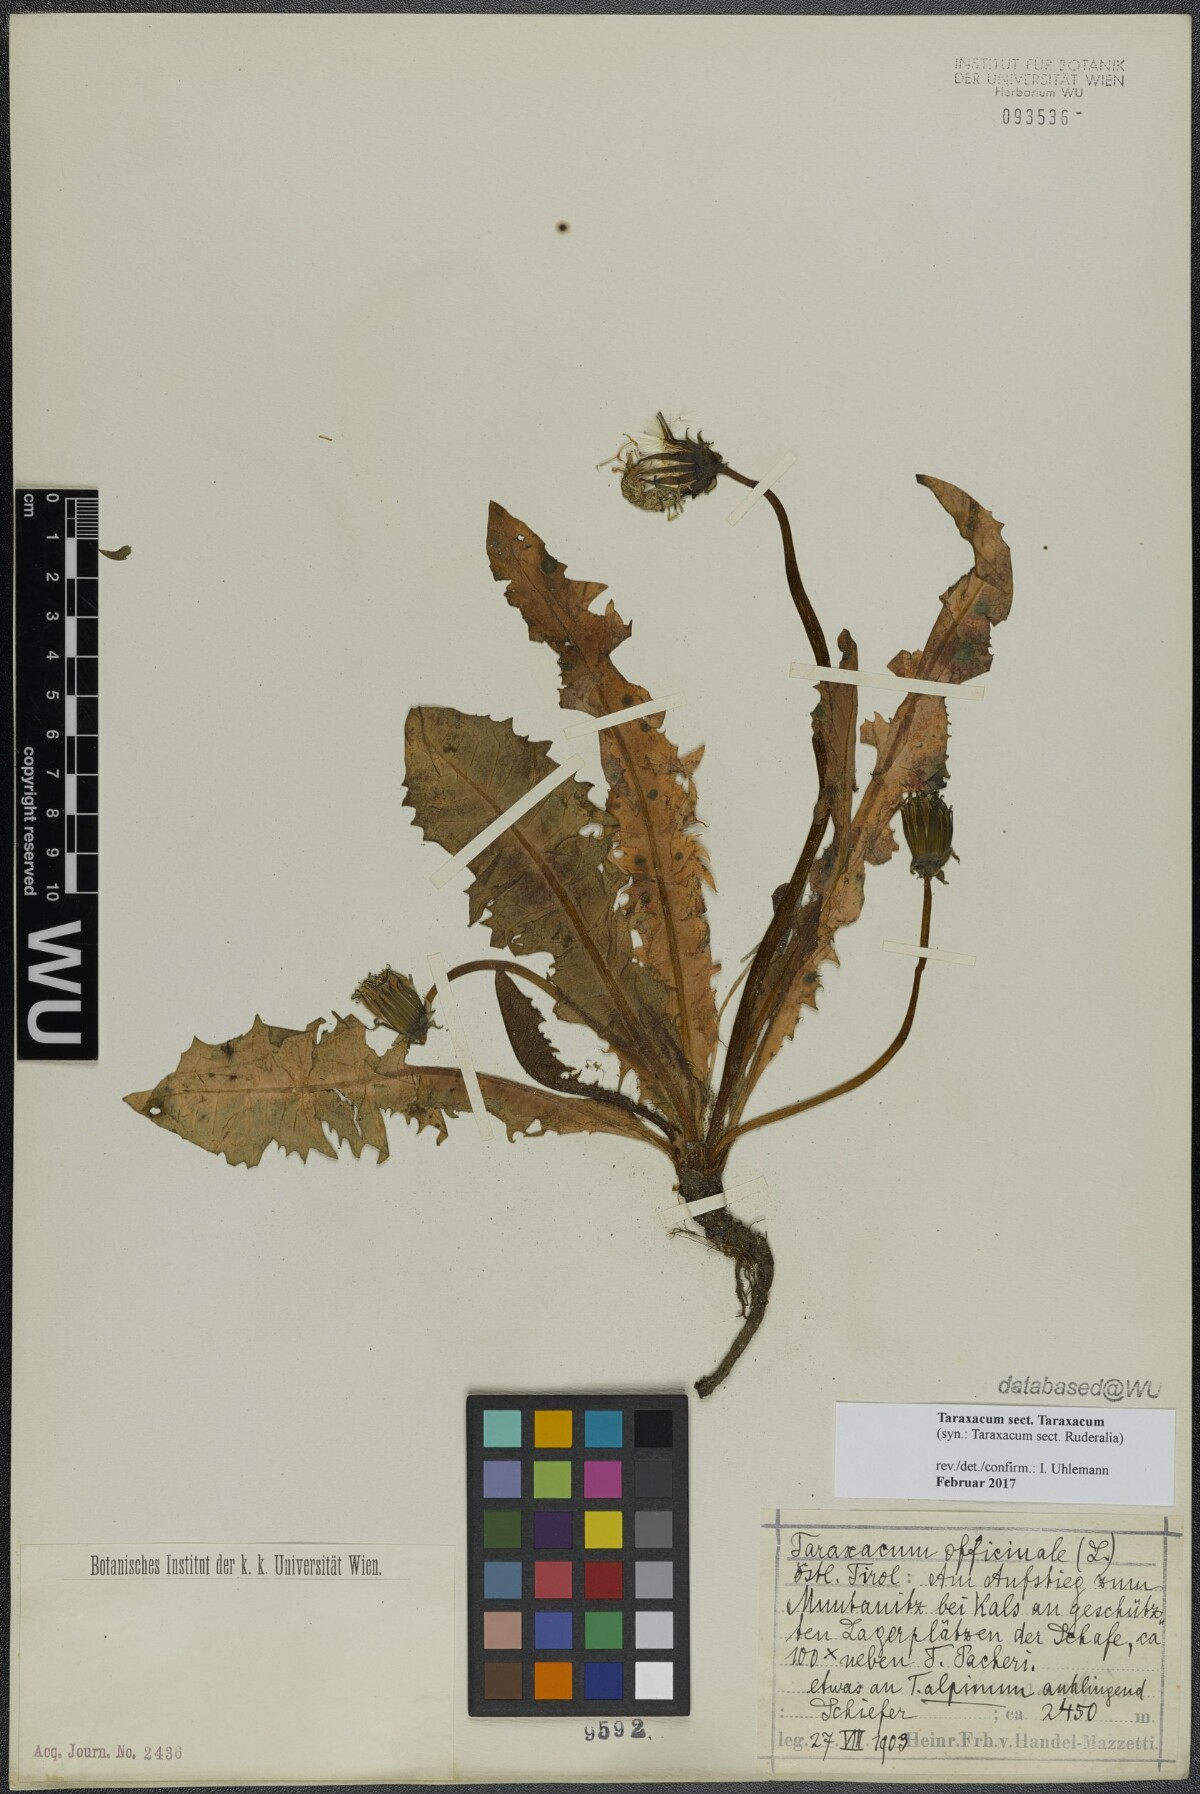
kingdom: Plantae
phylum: Tracheophyta
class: Magnoliopsida
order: Asterales
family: Asteraceae
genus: Taraxacum
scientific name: Taraxacum
